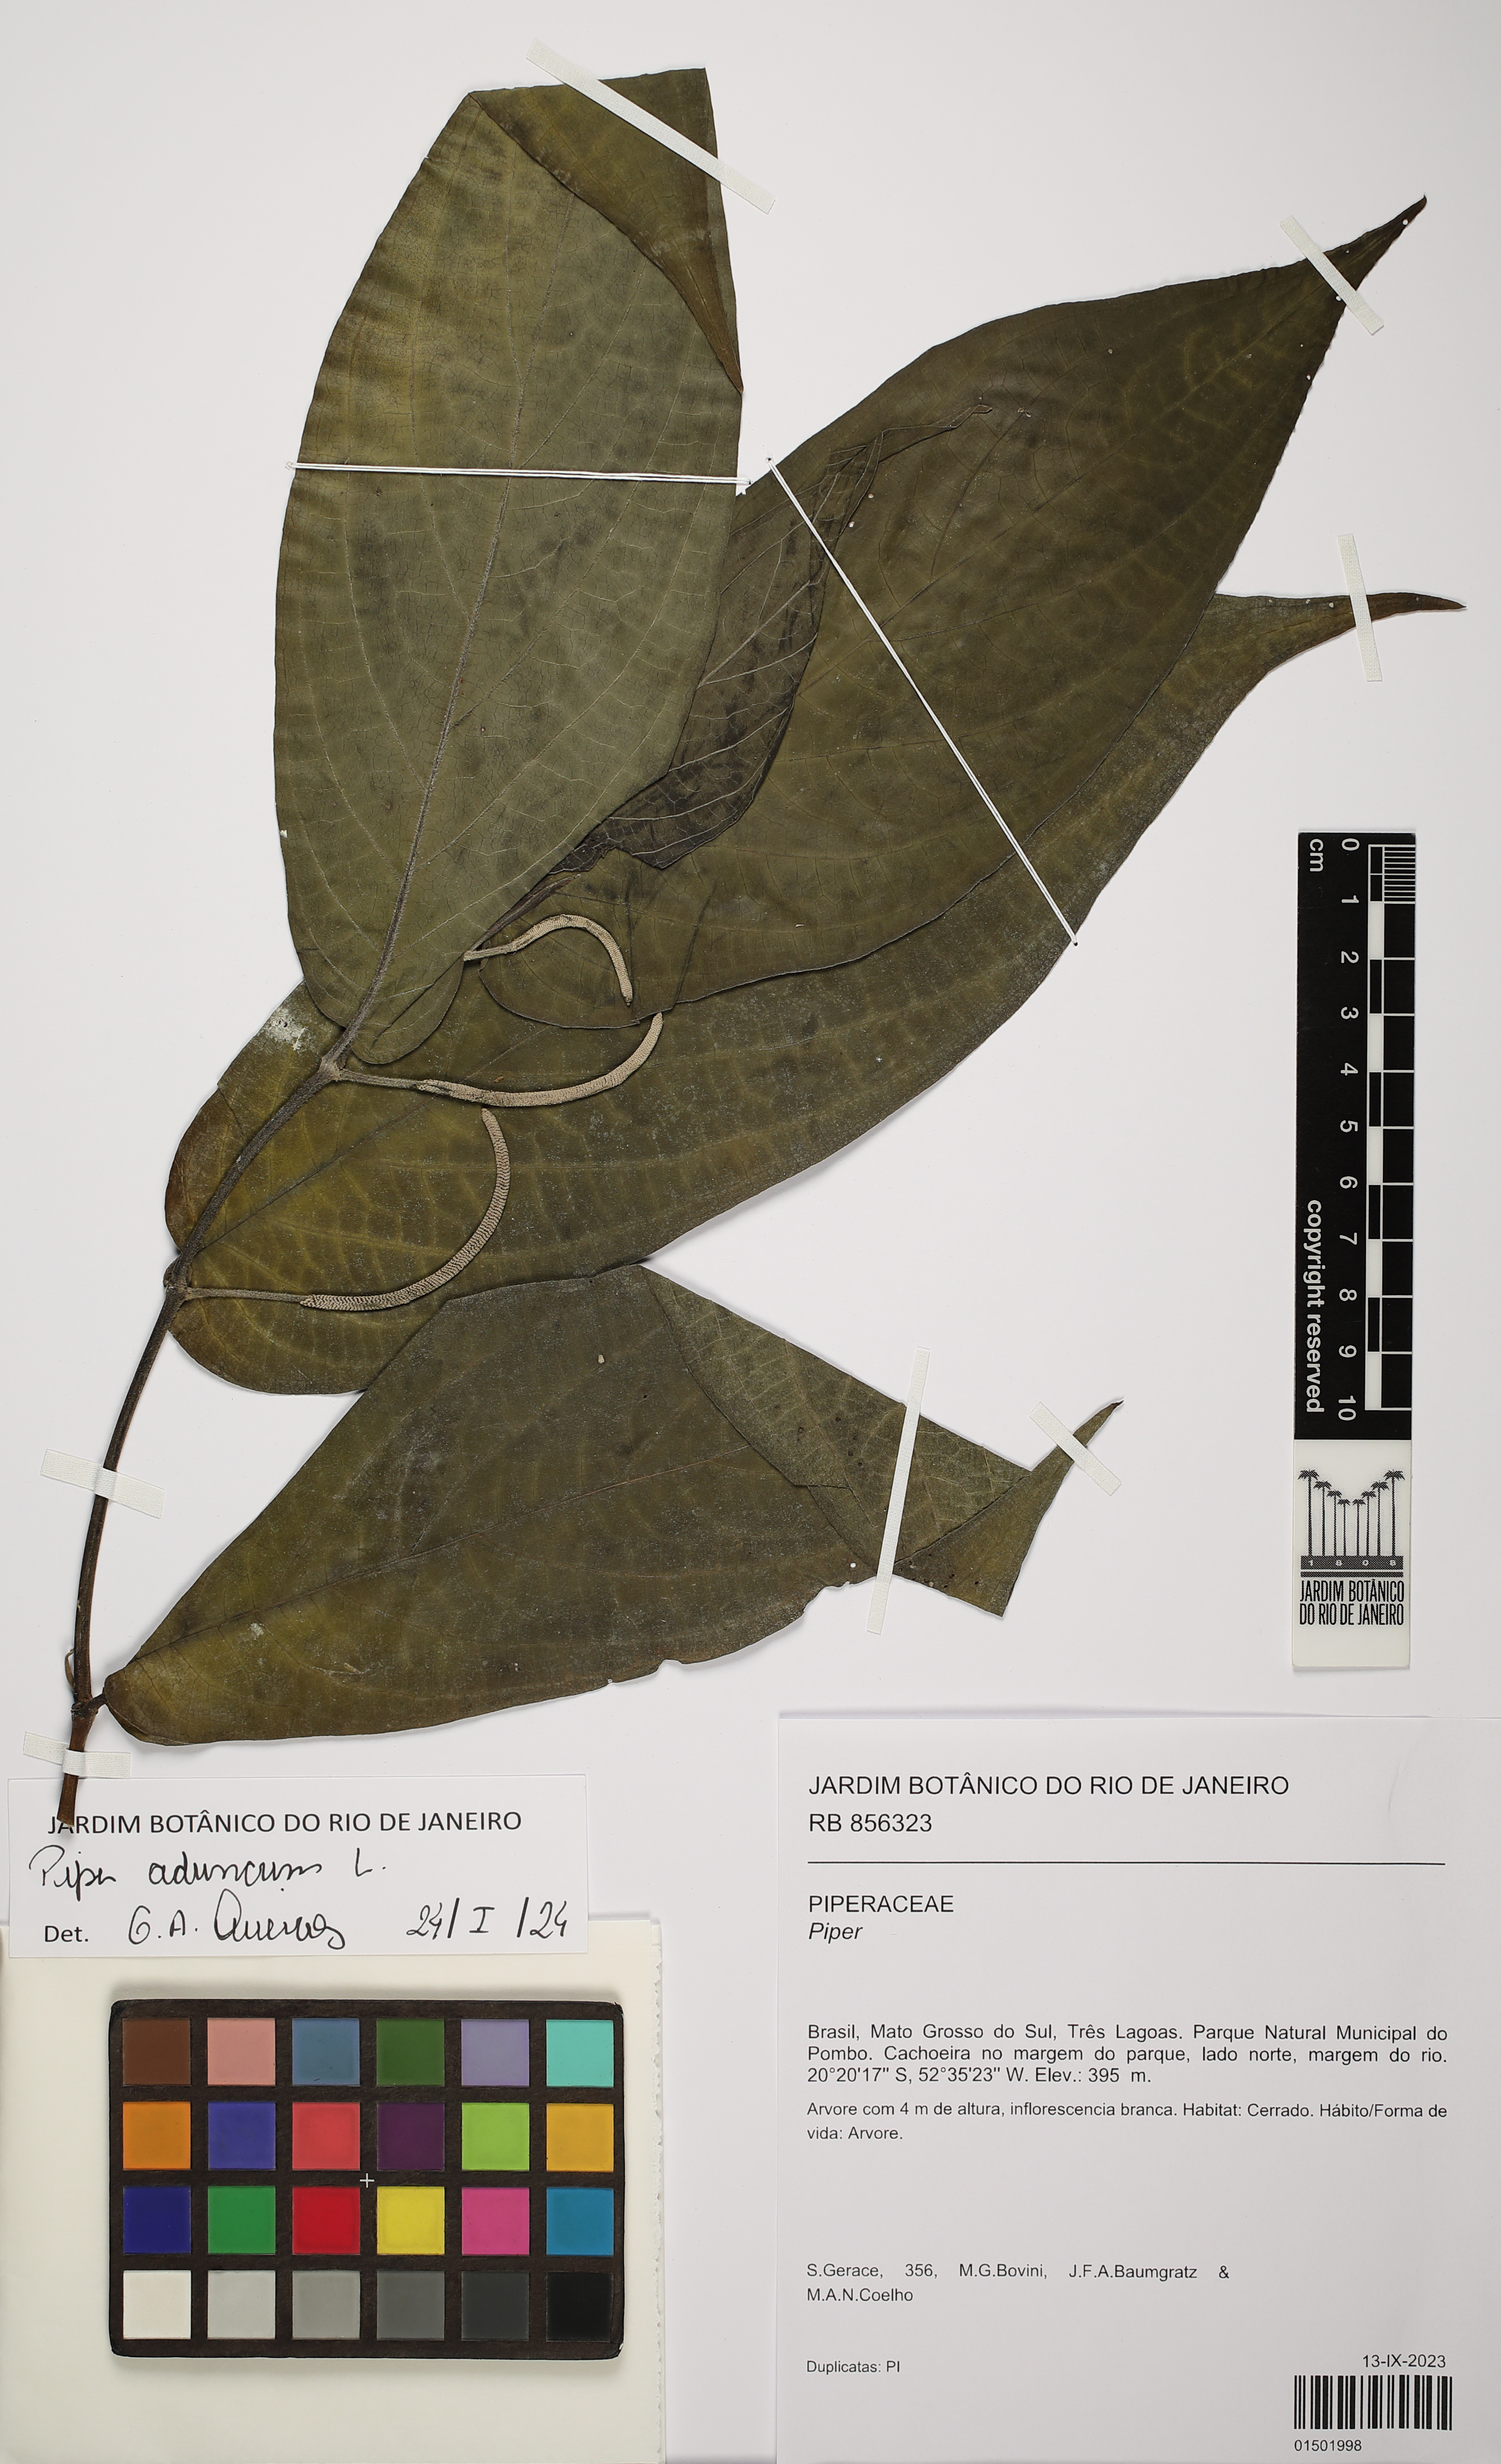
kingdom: Plantae
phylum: Tracheophyta
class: Magnoliopsida
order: Piperales
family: Piperaceae
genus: Piper
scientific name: Piper aduncum
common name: Spiked pepper
